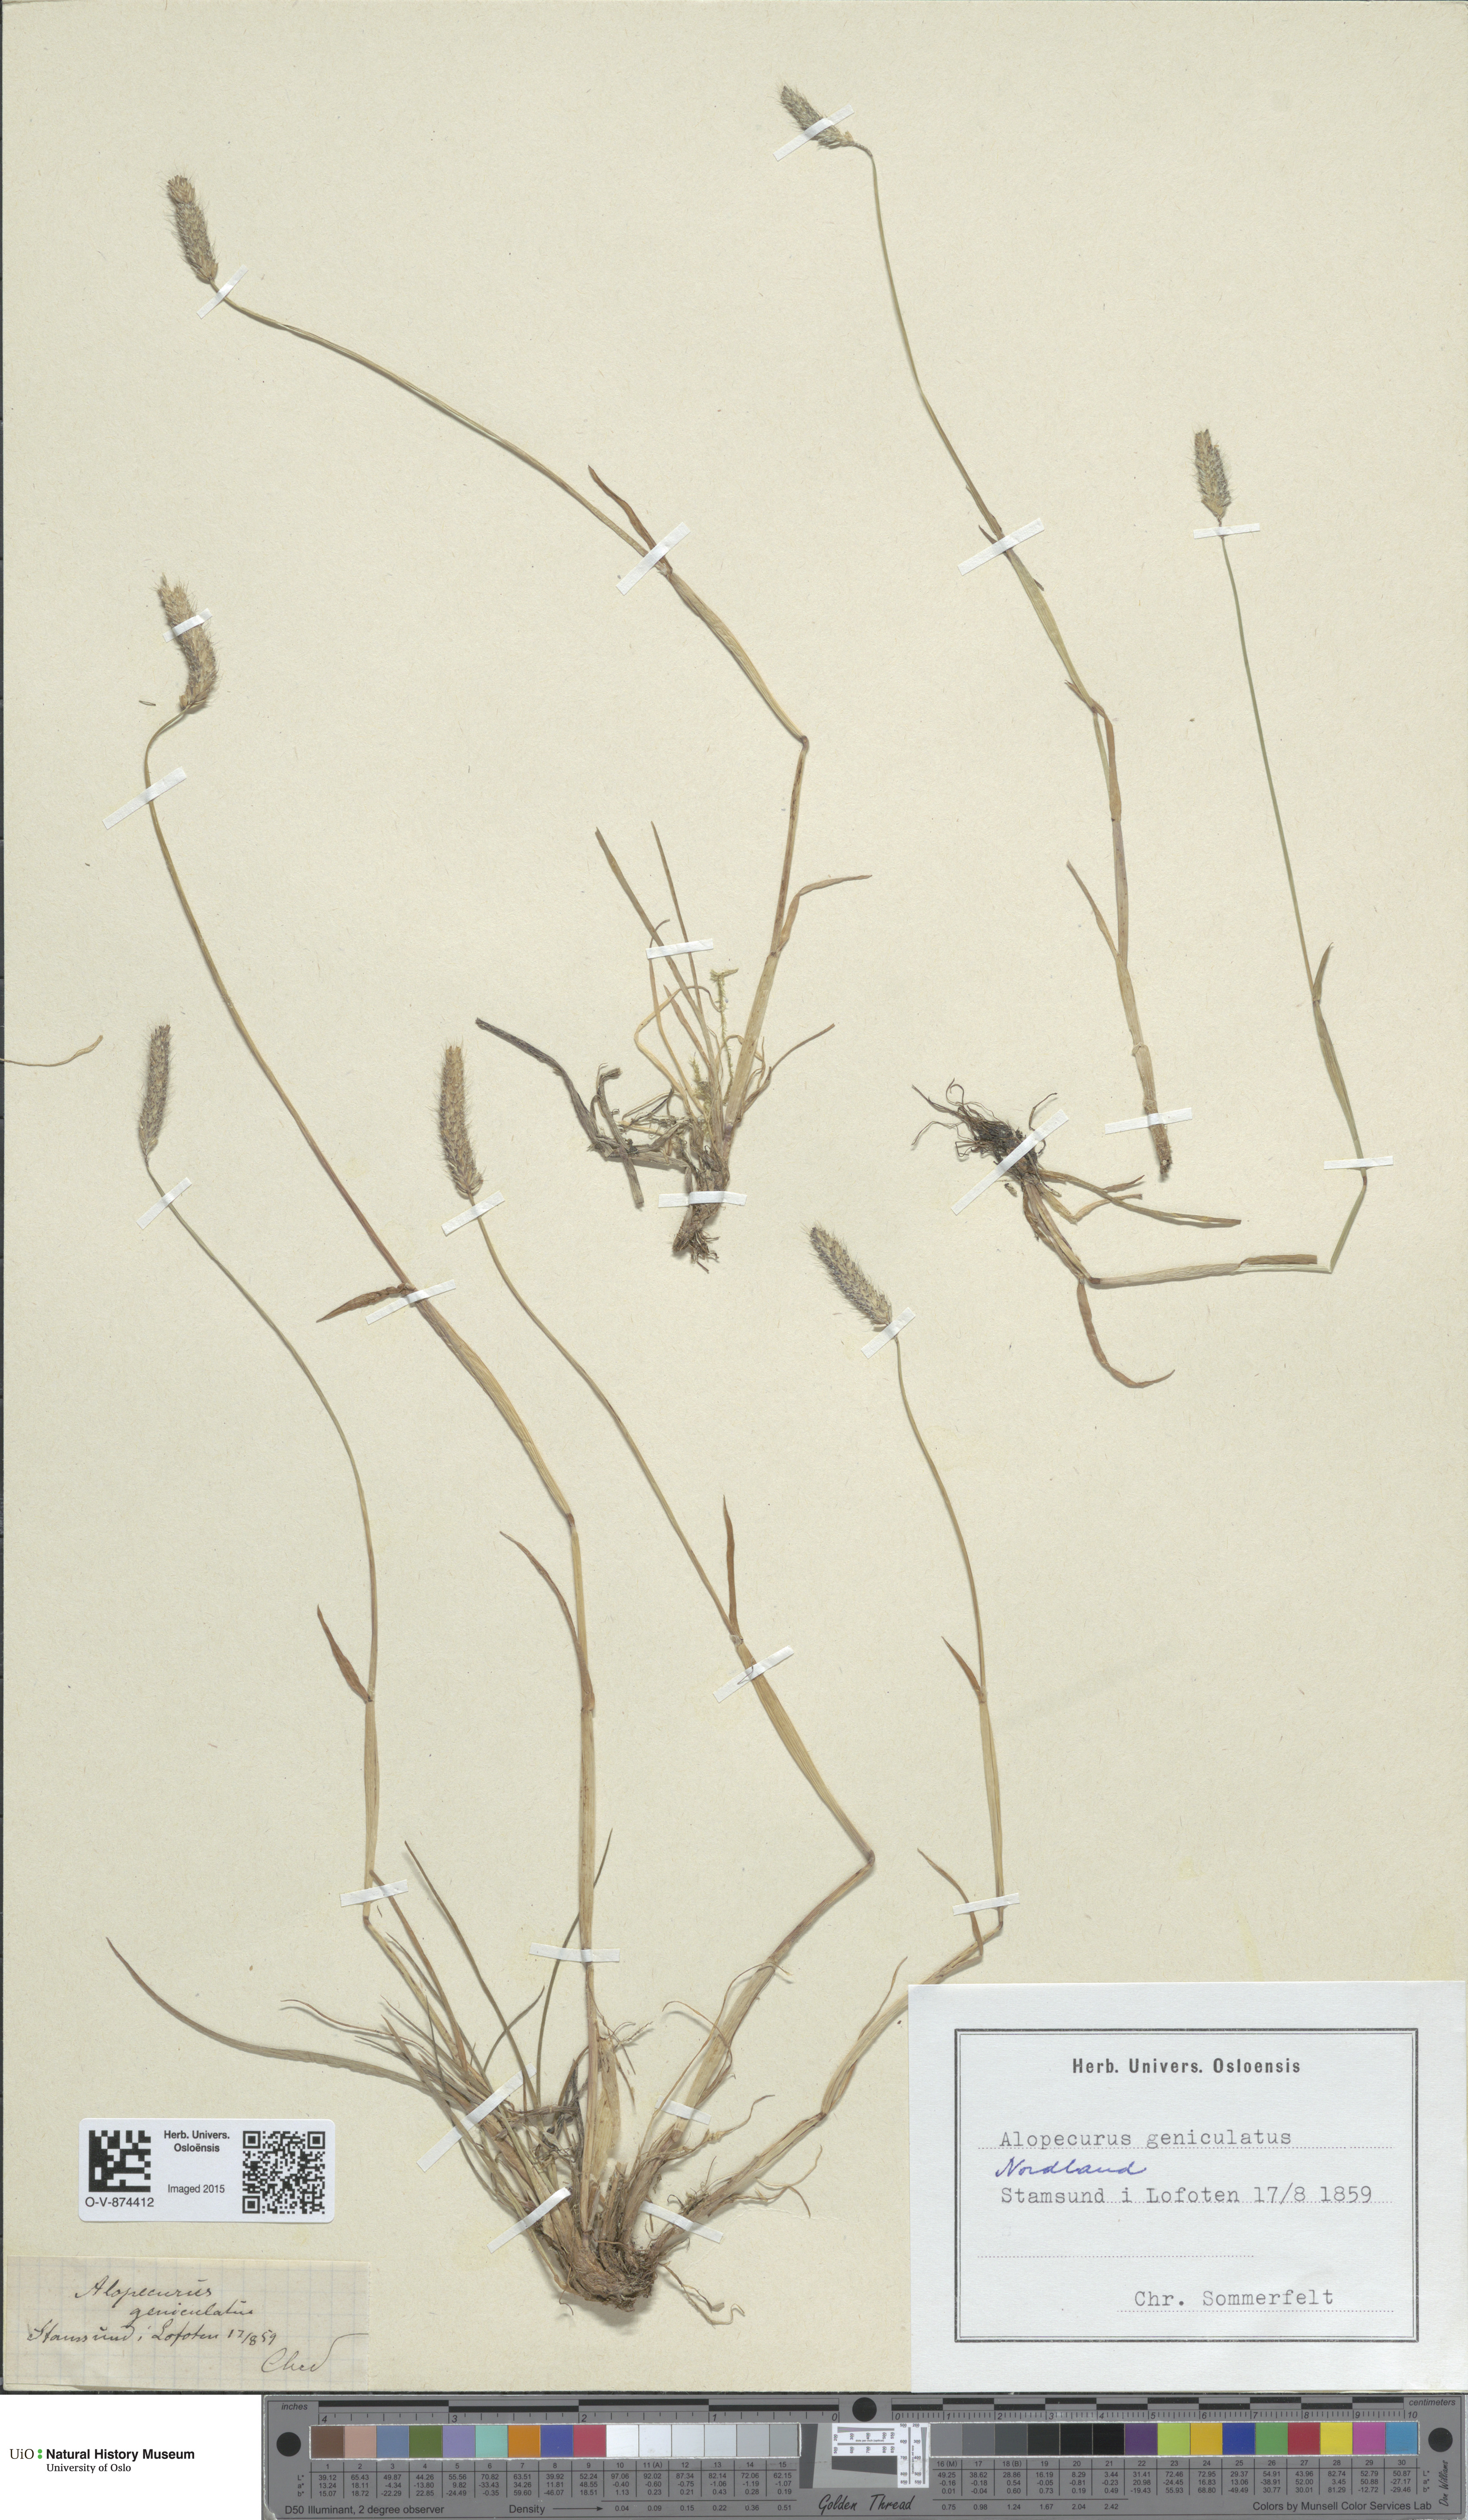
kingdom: Plantae
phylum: Tracheophyta
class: Liliopsida
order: Poales
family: Poaceae
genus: Alopecurus
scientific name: Alopecurus geniculatus
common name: Water foxtail
